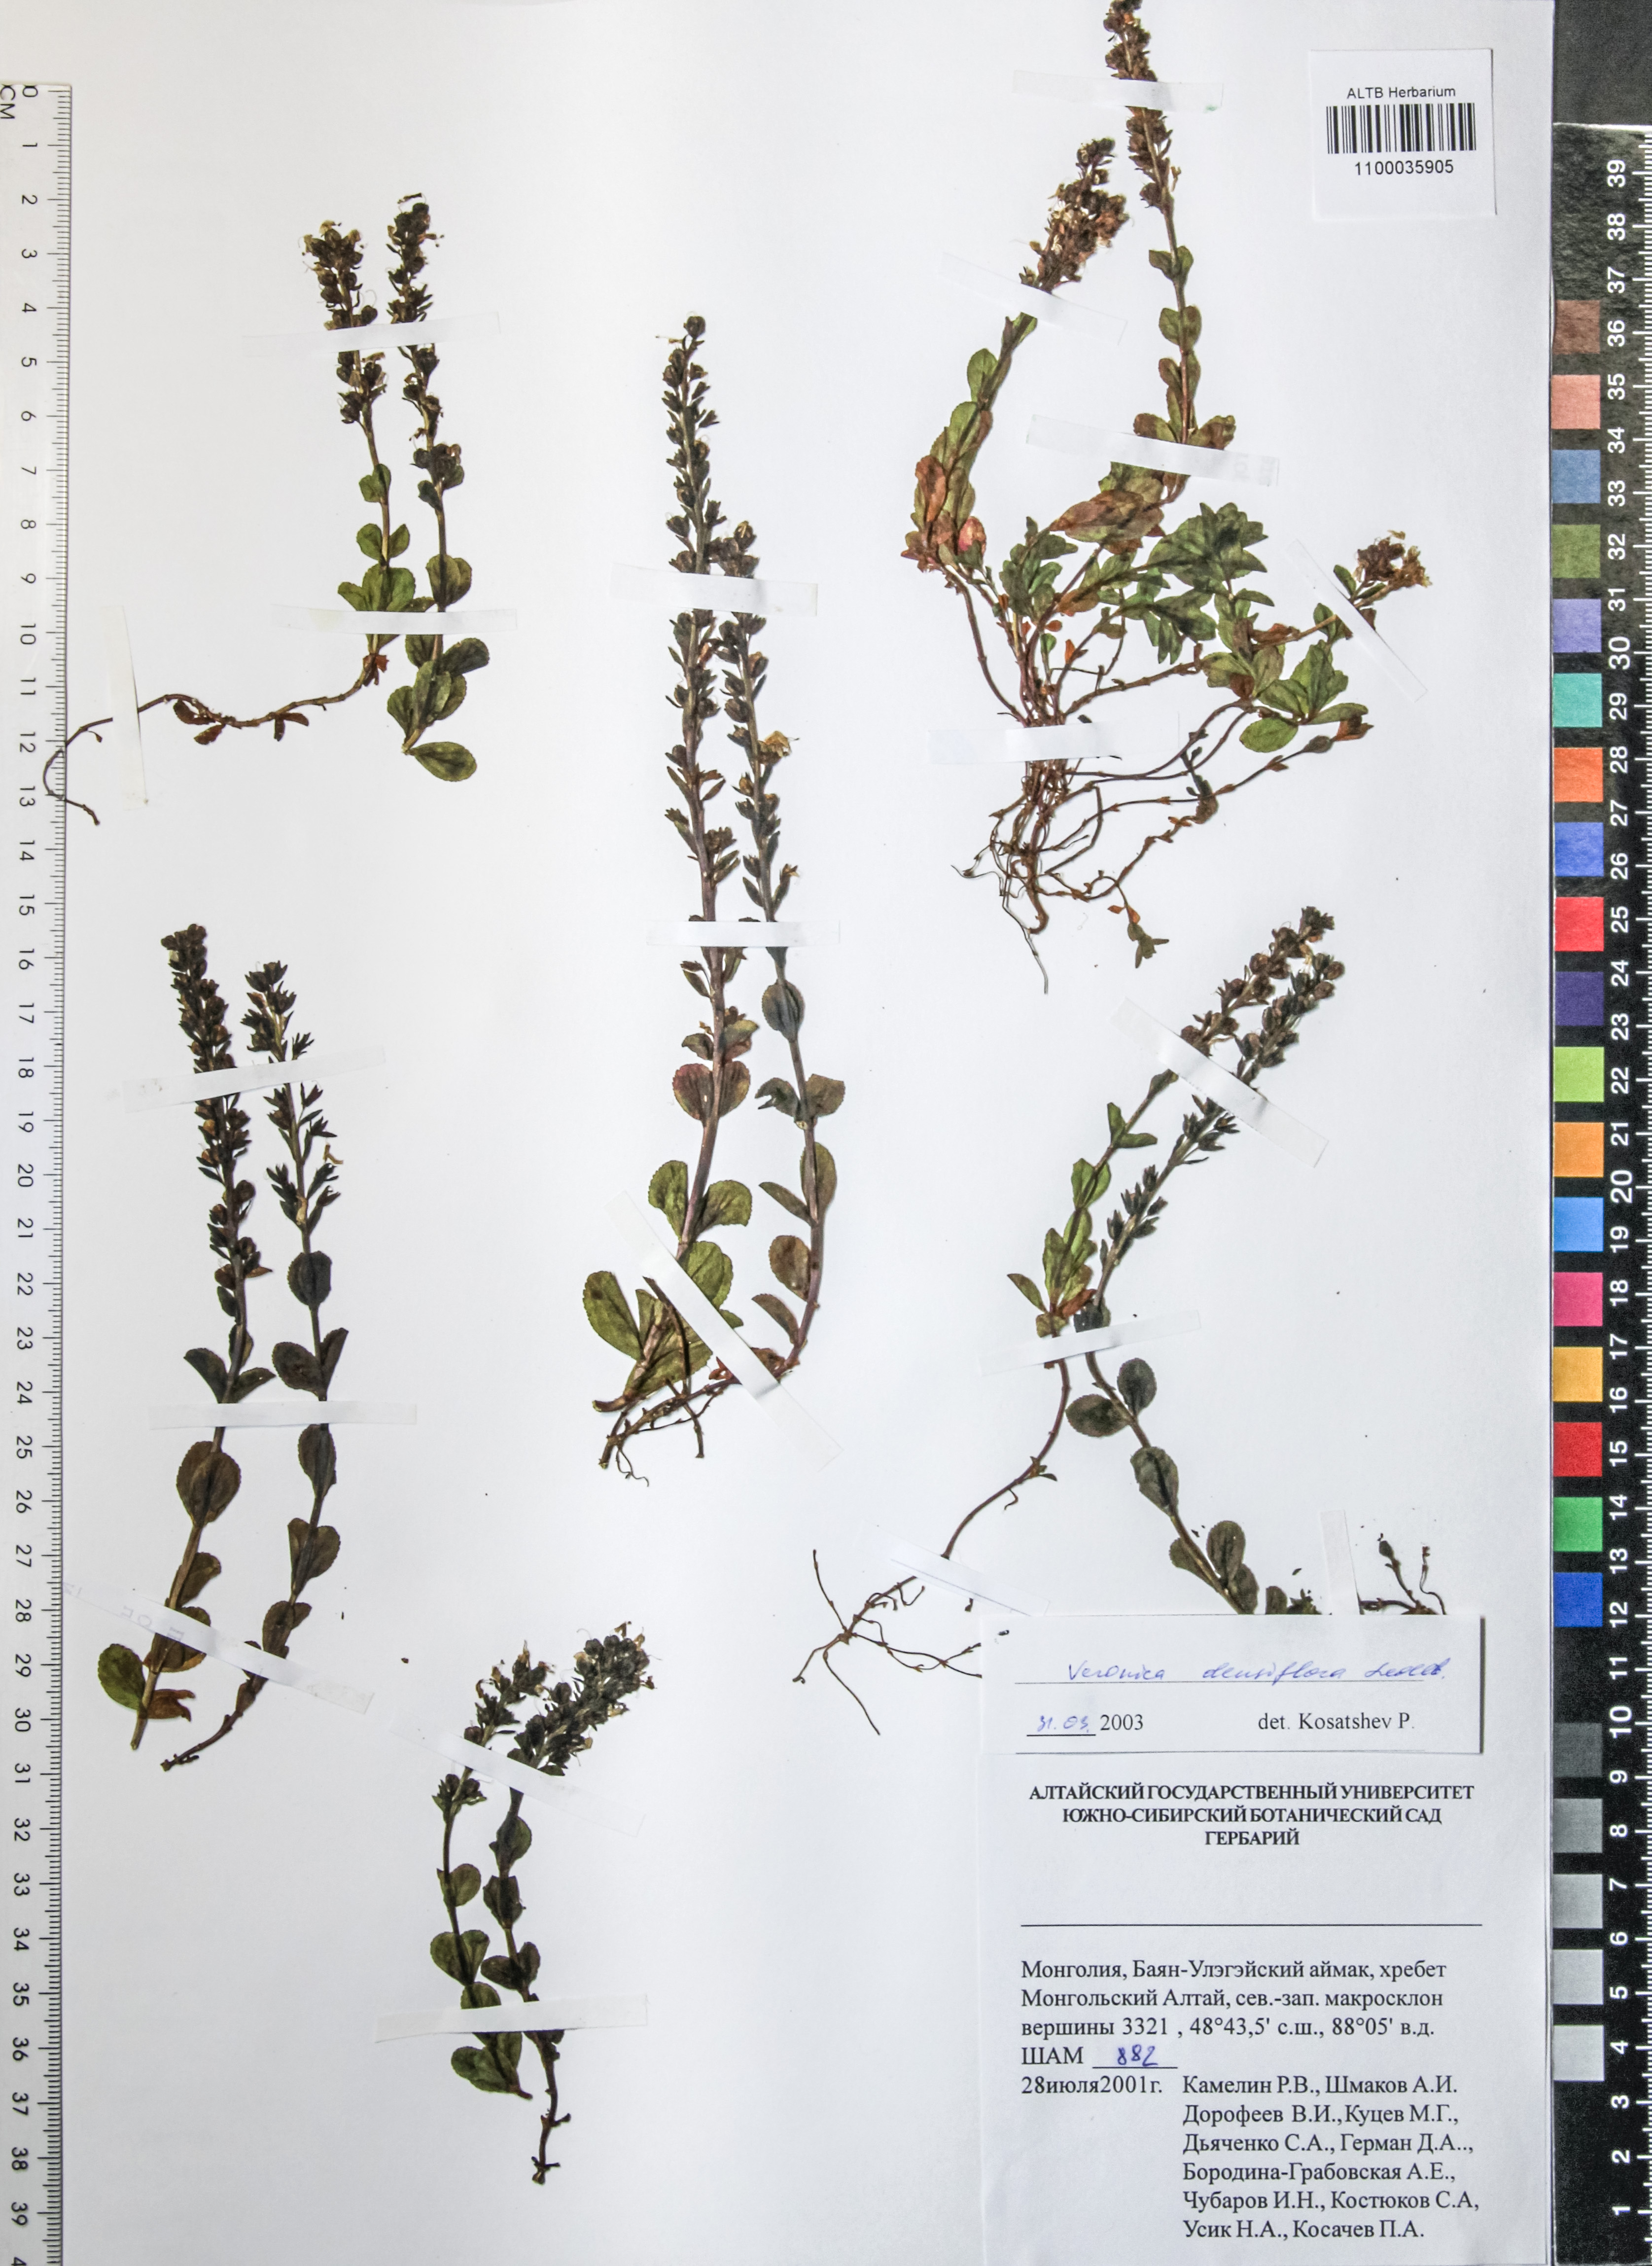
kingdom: Plantae
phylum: Tracheophyta
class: Magnoliopsida
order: Lamiales
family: Plantaginaceae
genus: Veronica
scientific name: Veronica densiflora
